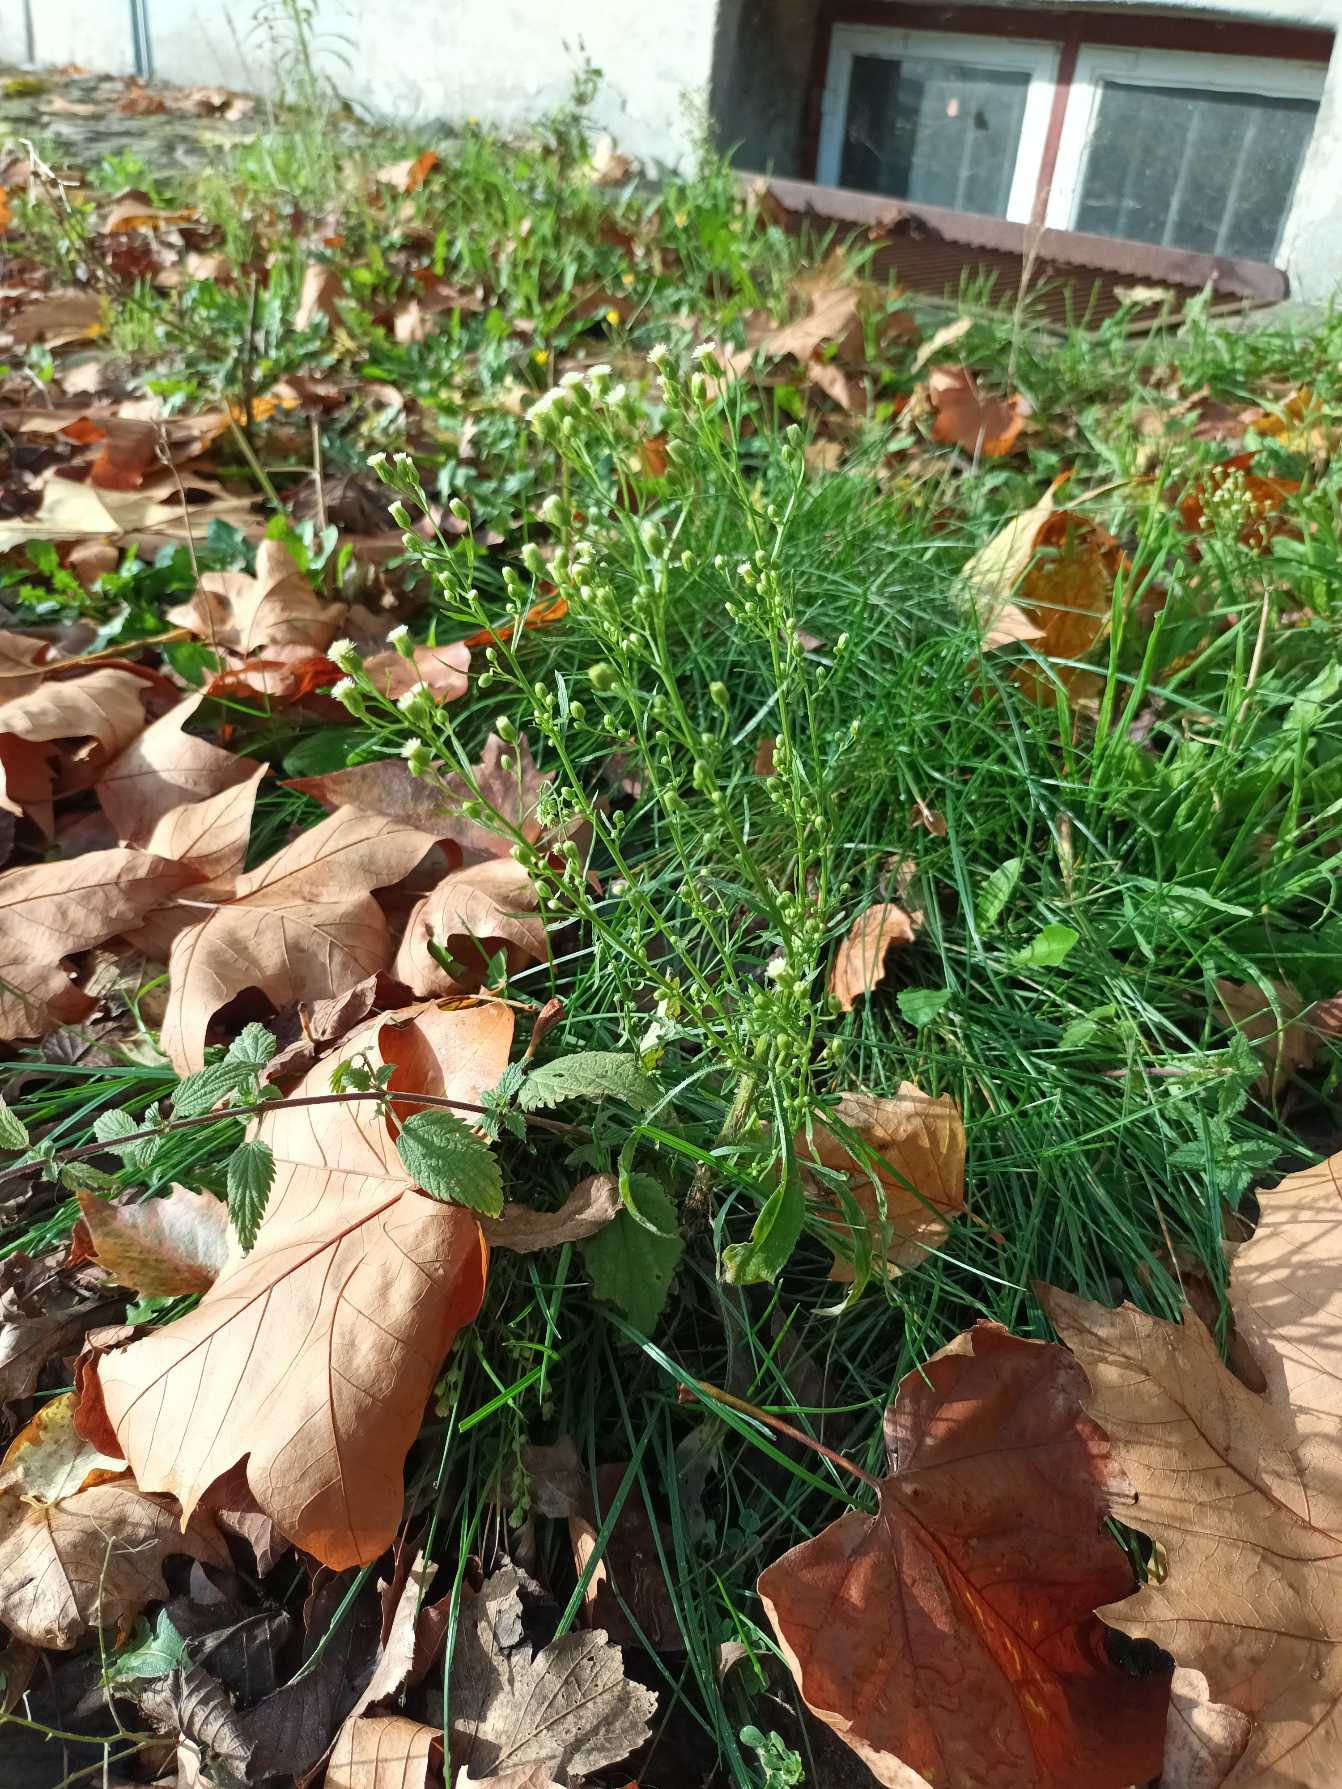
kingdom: Plantae
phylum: Tracheophyta
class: Magnoliopsida
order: Asterales
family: Asteraceae
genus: Erigeron
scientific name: Erigeron canadensis
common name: Kanadisk bakkestjerne
